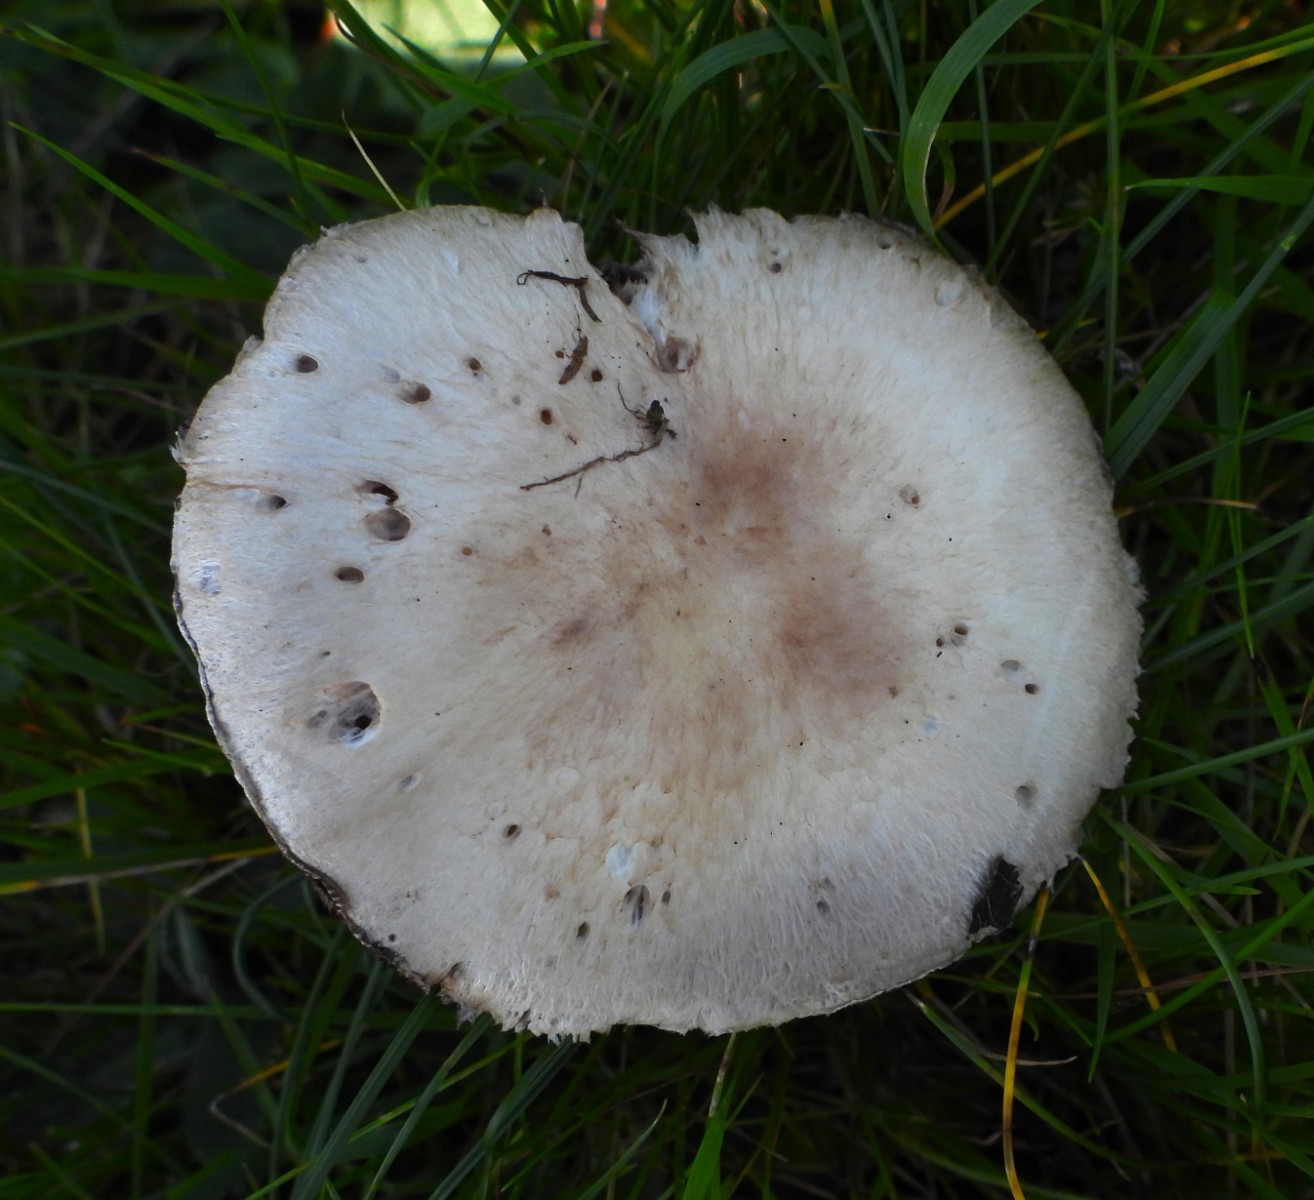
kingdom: Fungi
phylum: Basidiomycota
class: Agaricomycetes
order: Agaricales
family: Agaricaceae
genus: Agaricus
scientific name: Agaricus campestris
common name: mark-champignon
